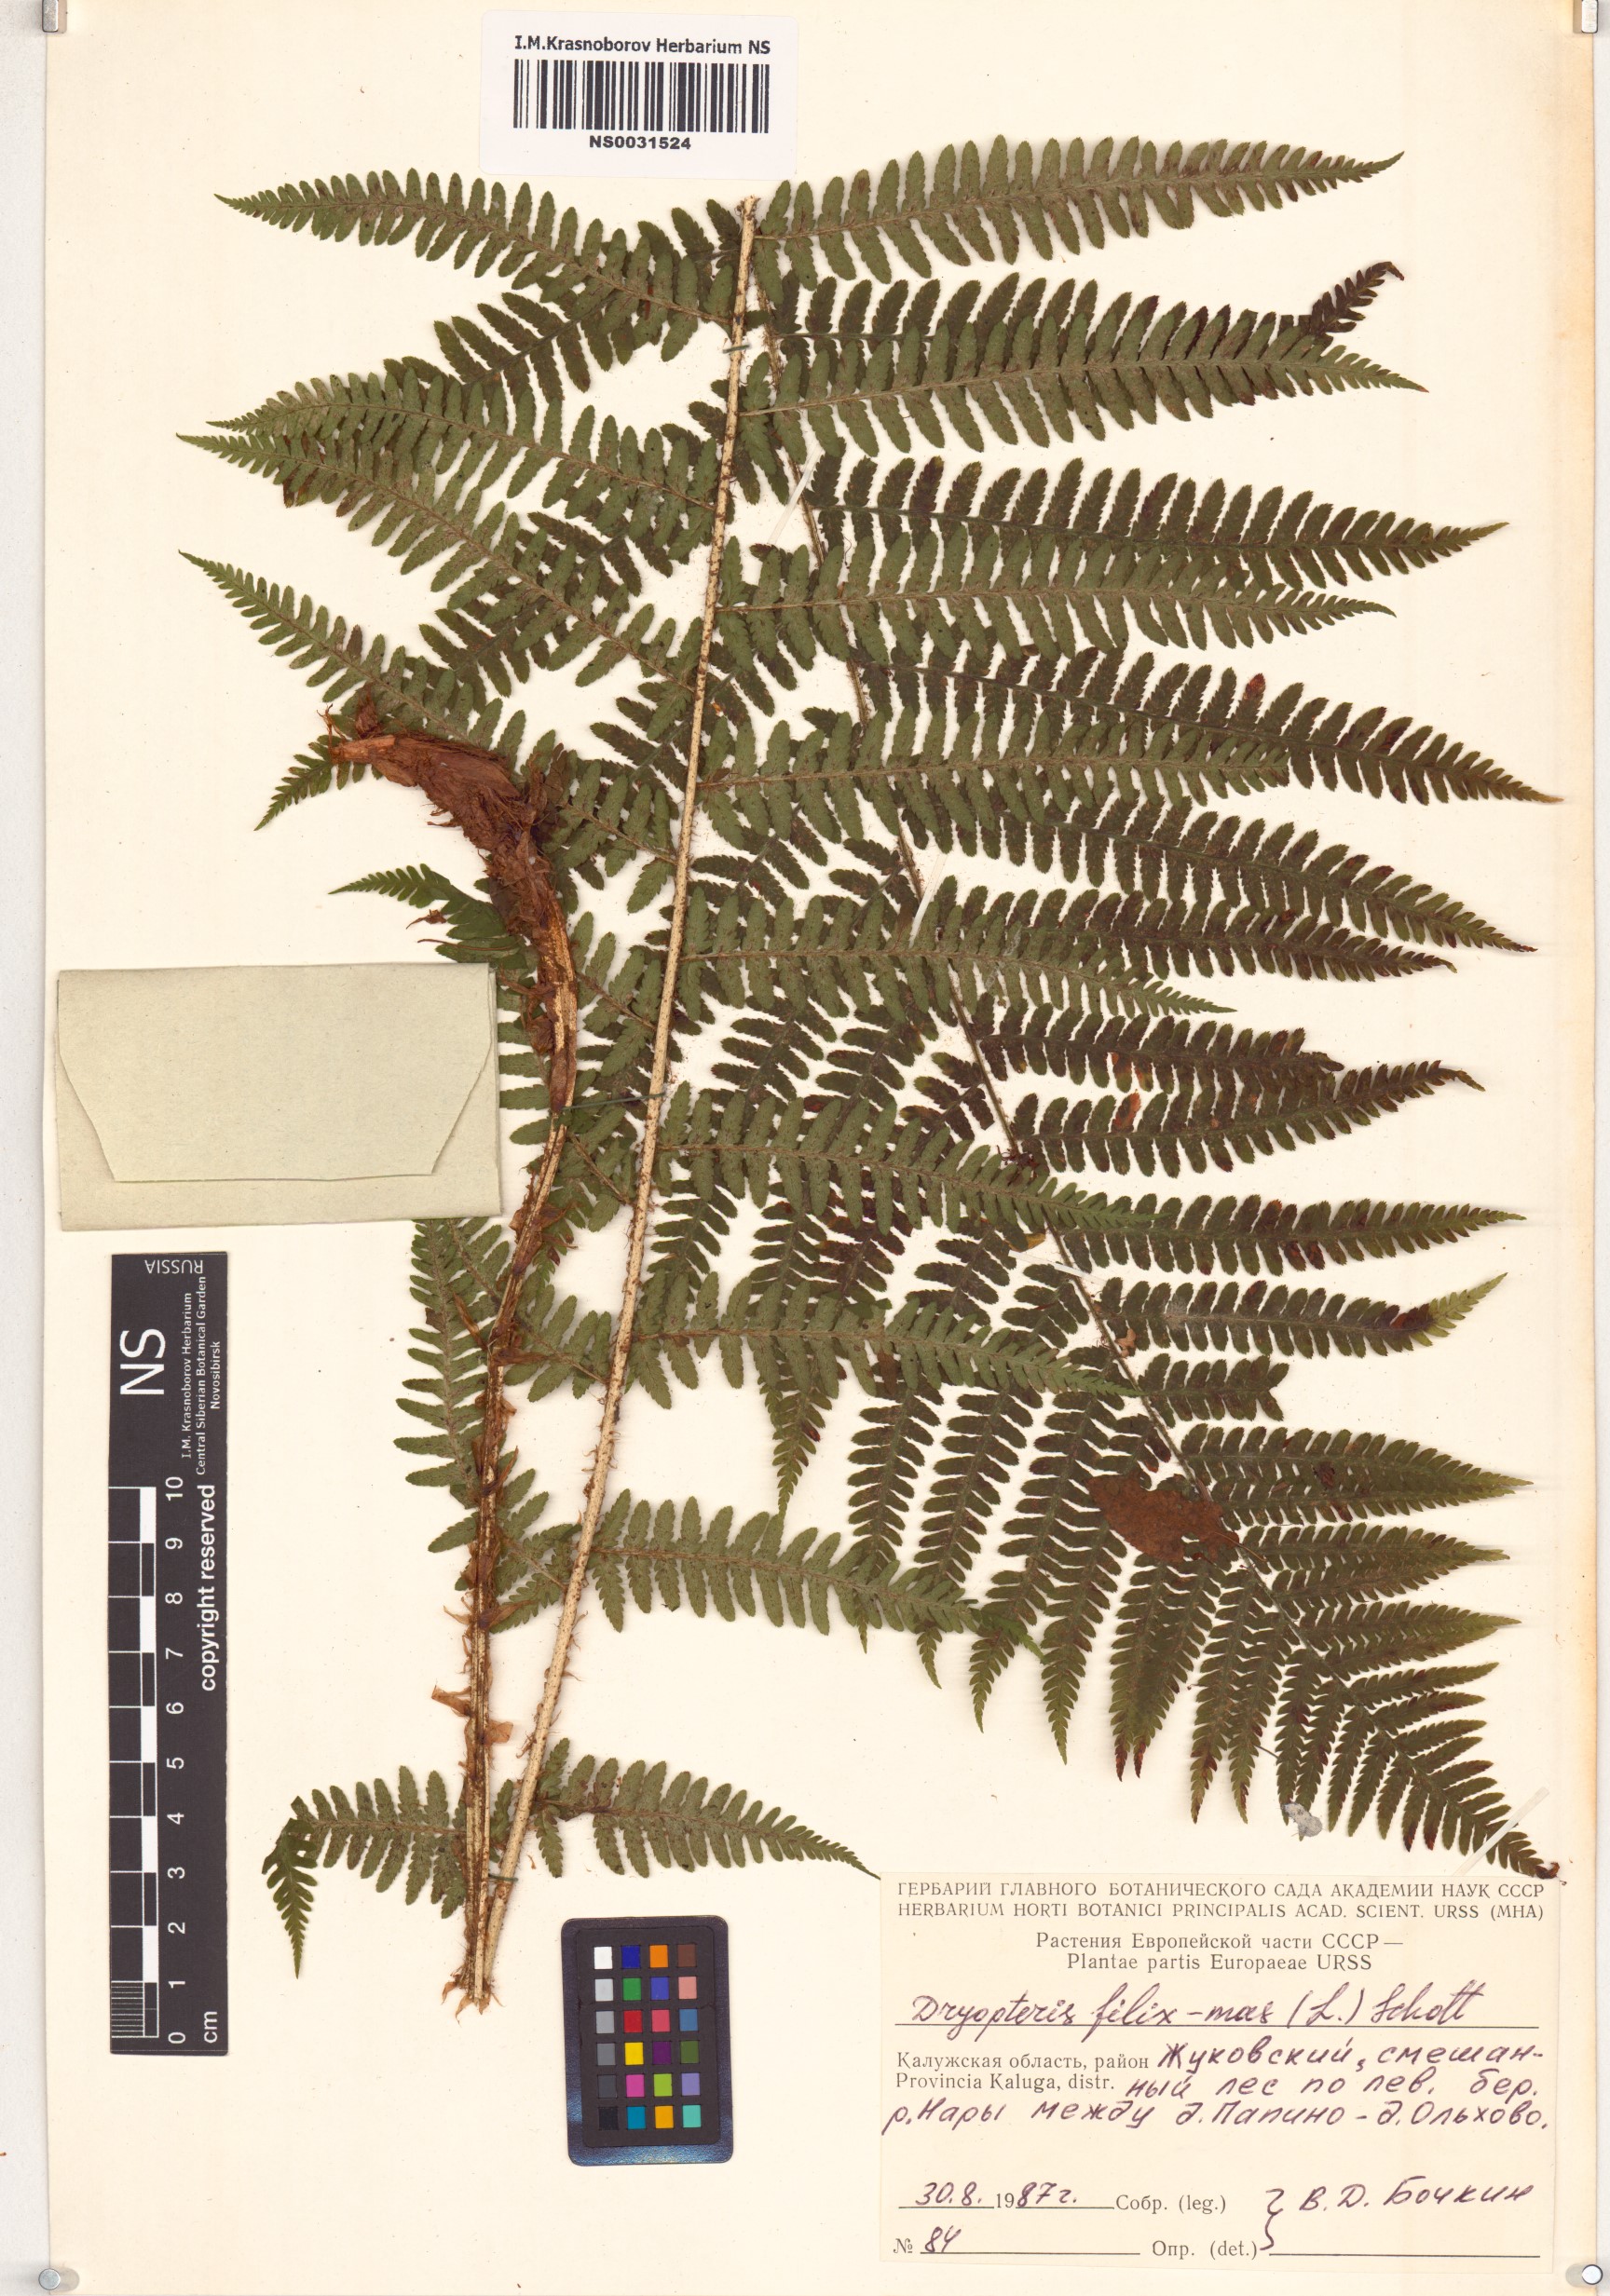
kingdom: Plantae
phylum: Tracheophyta
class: Polypodiopsida
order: Polypodiales
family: Dryopteridaceae
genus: Dryopteris
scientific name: Dryopteris filix-mas
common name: Male fern
